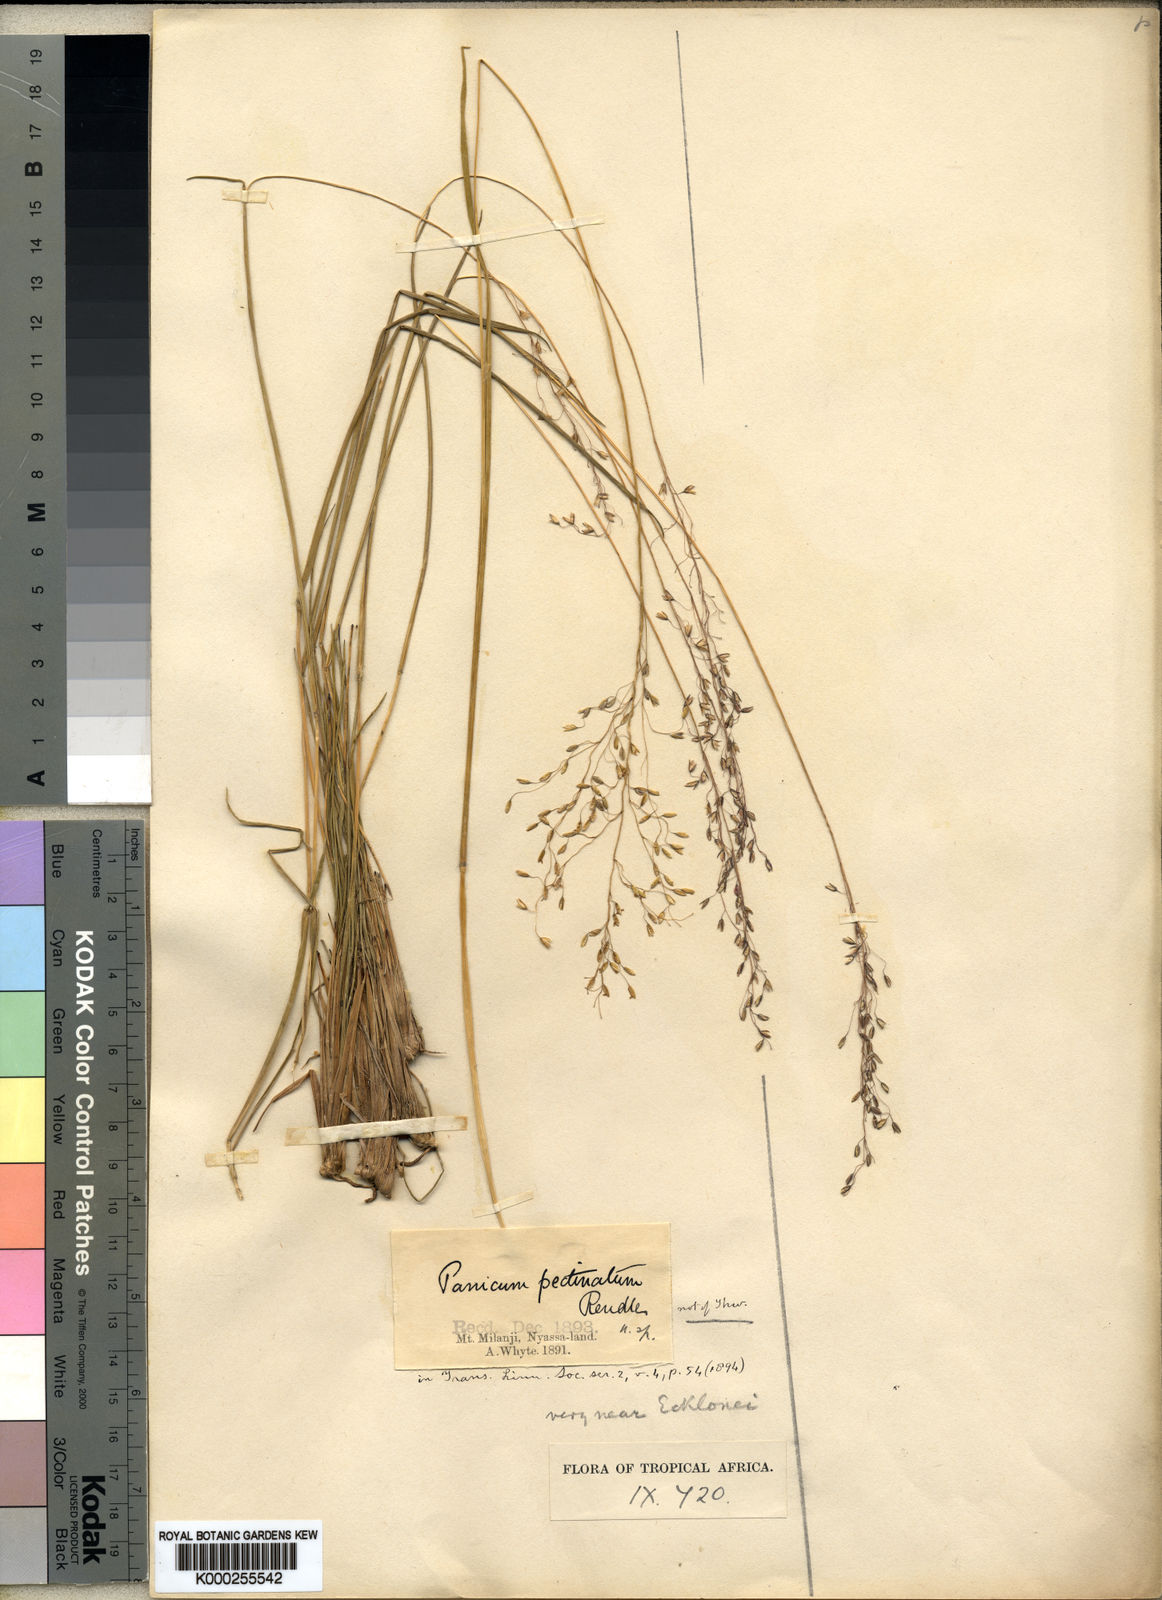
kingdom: Plantae
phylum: Tracheophyta
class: Liliopsida
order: Poales
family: Poaceae
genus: Adenochloa
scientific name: Adenochloa ecklonii
